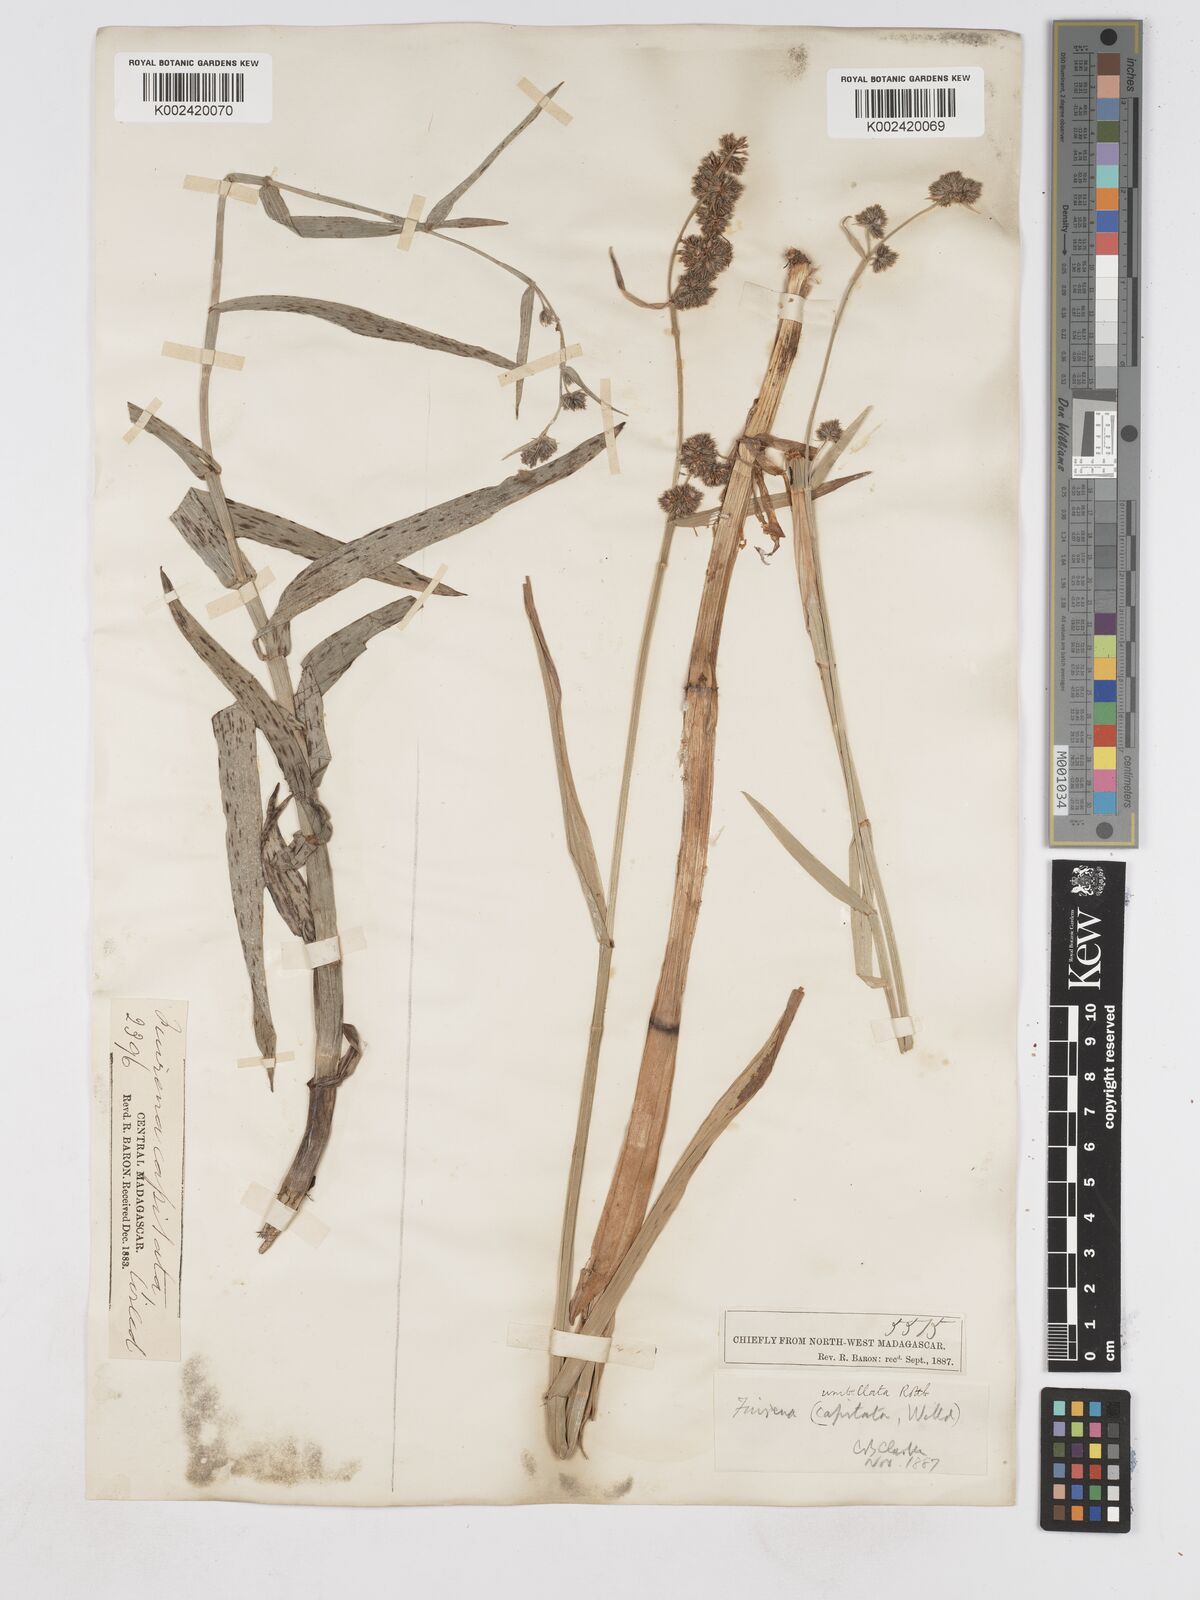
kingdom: Plantae
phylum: Tracheophyta
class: Liliopsida
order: Poales
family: Cyperaceae
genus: Fuirena
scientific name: Fuirena umbellata
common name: Yefen
